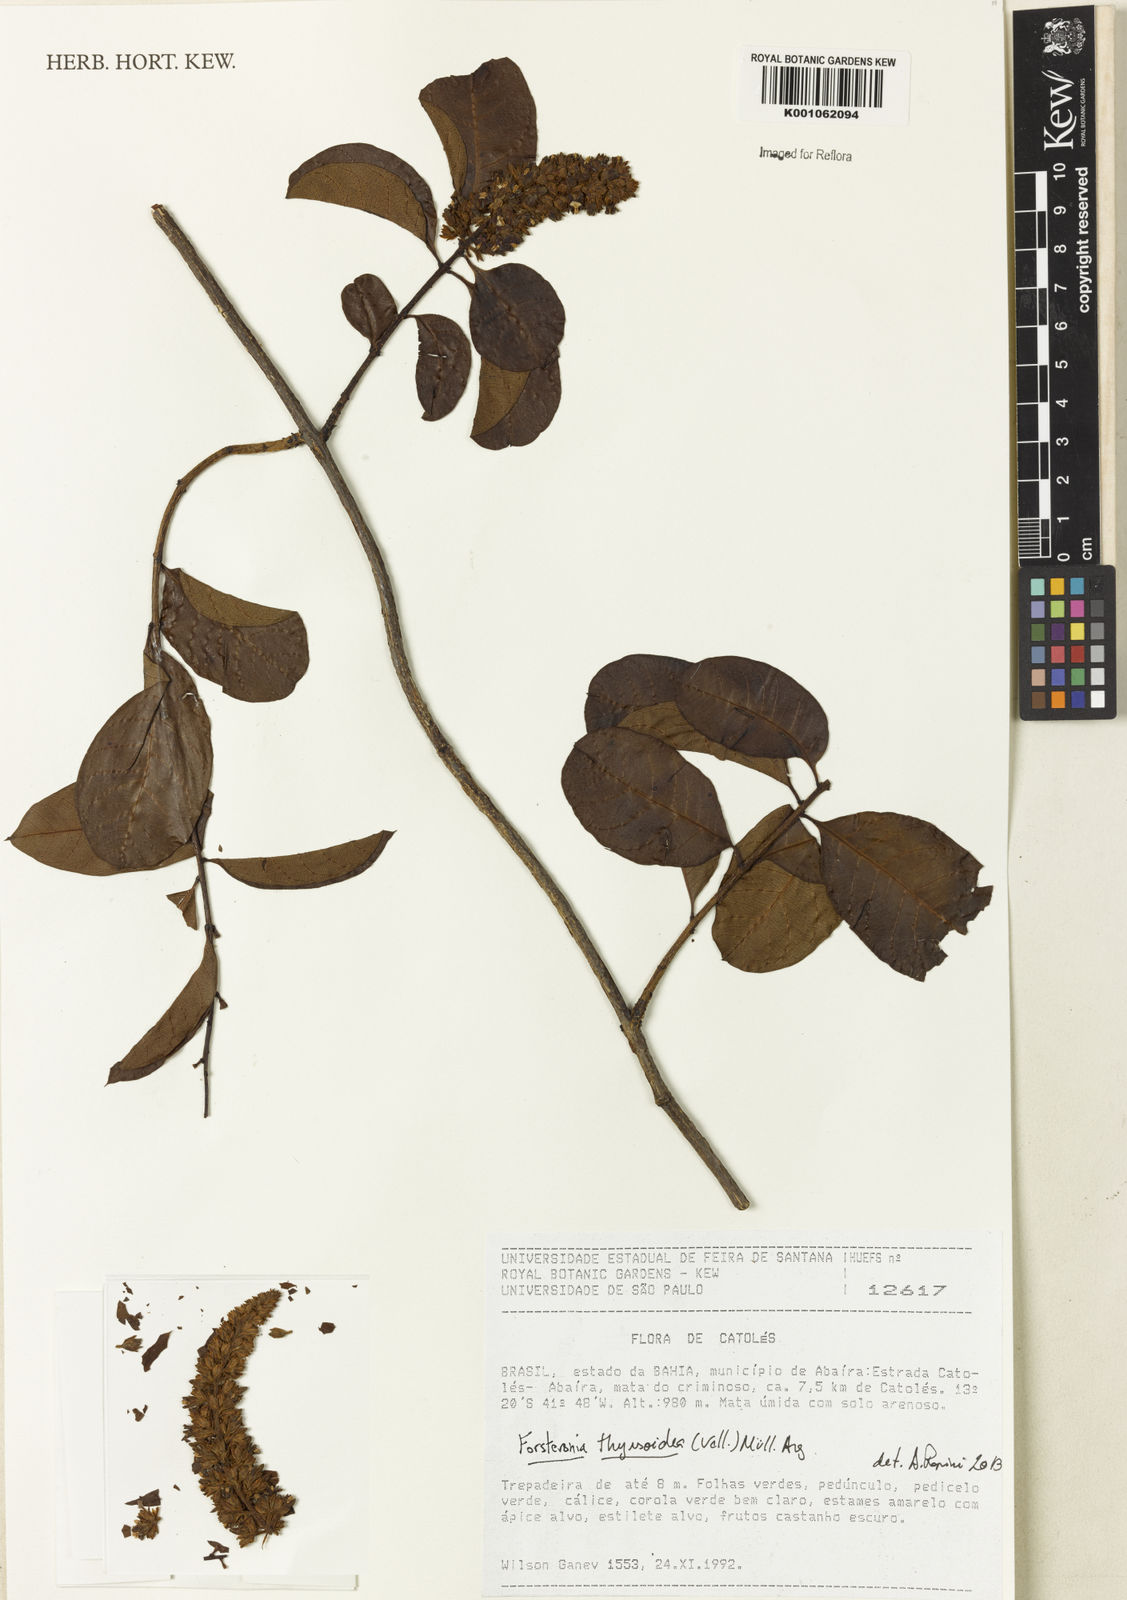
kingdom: Plantae
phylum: Tracheophyta
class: Magnoliopsida
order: Gentianales
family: Apocynaceae
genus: Forsteronia
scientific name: Forsteronia
